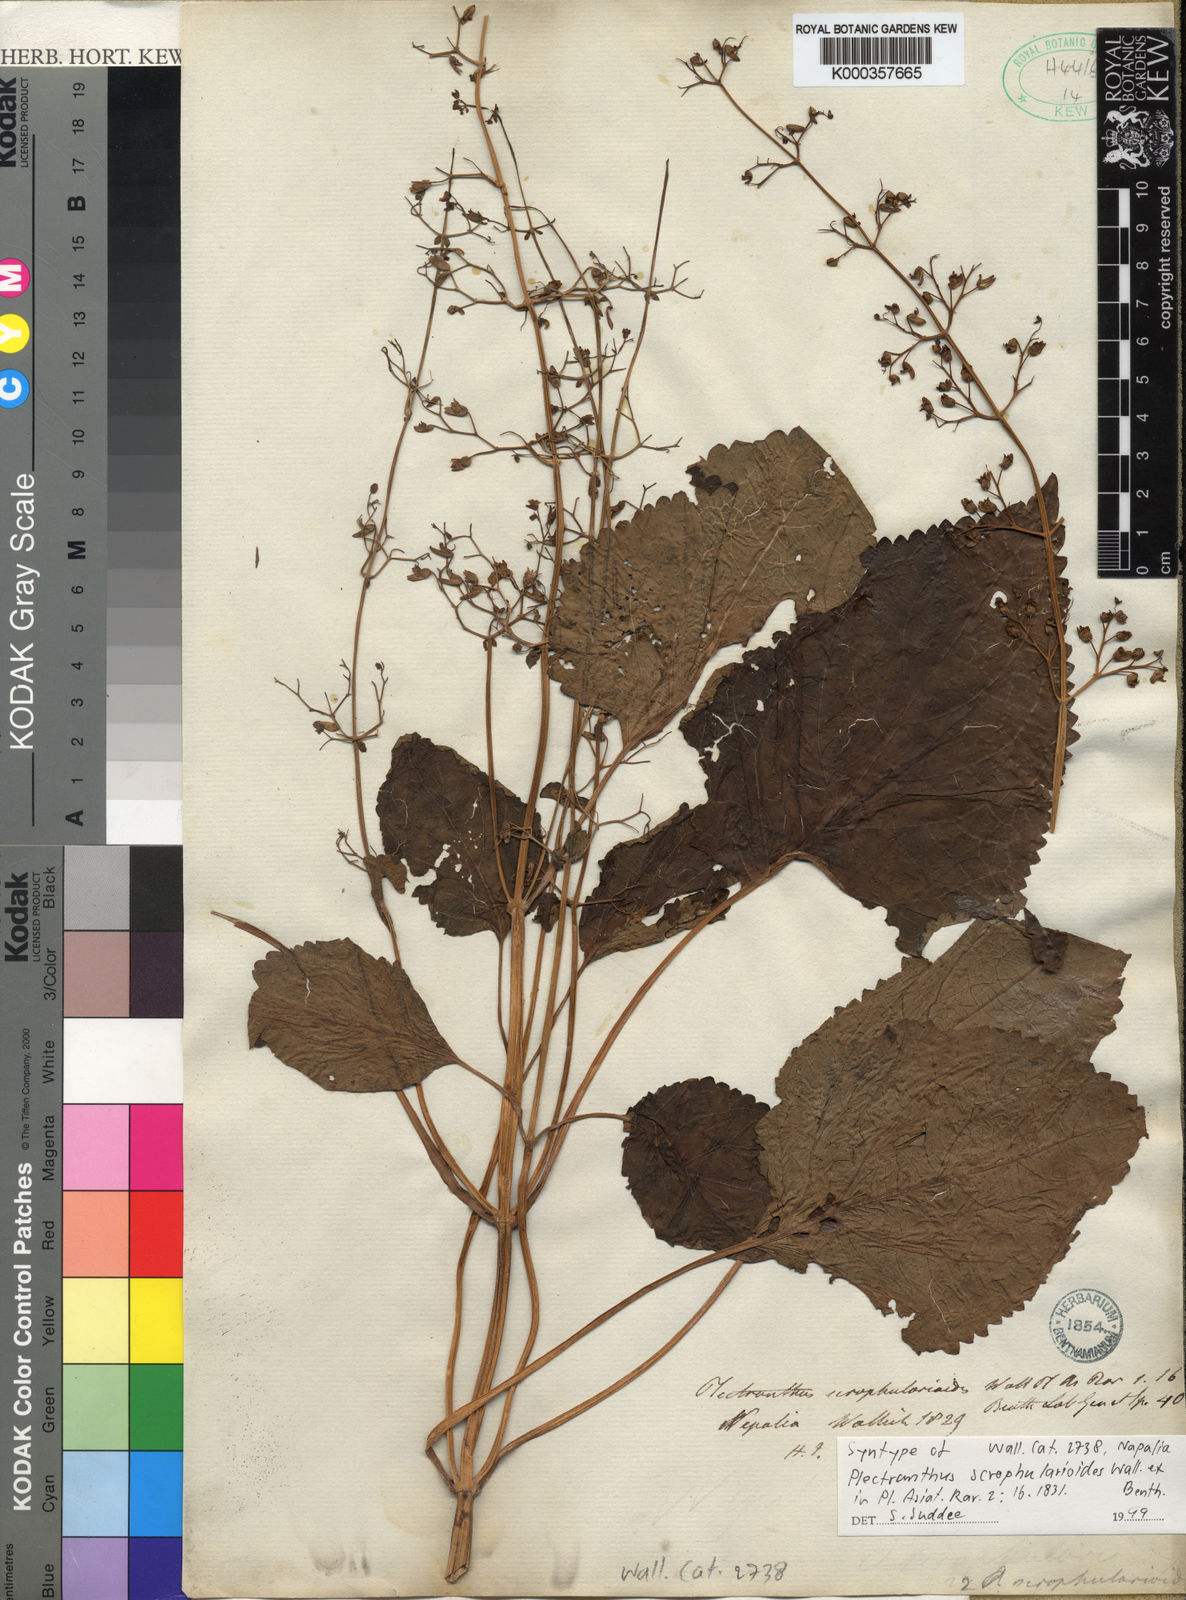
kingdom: Plantae
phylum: Tracheophyta
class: Magnoliopsida
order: Lamiales
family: Lamiaceae
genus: Plectranthus
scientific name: Plectranthus
